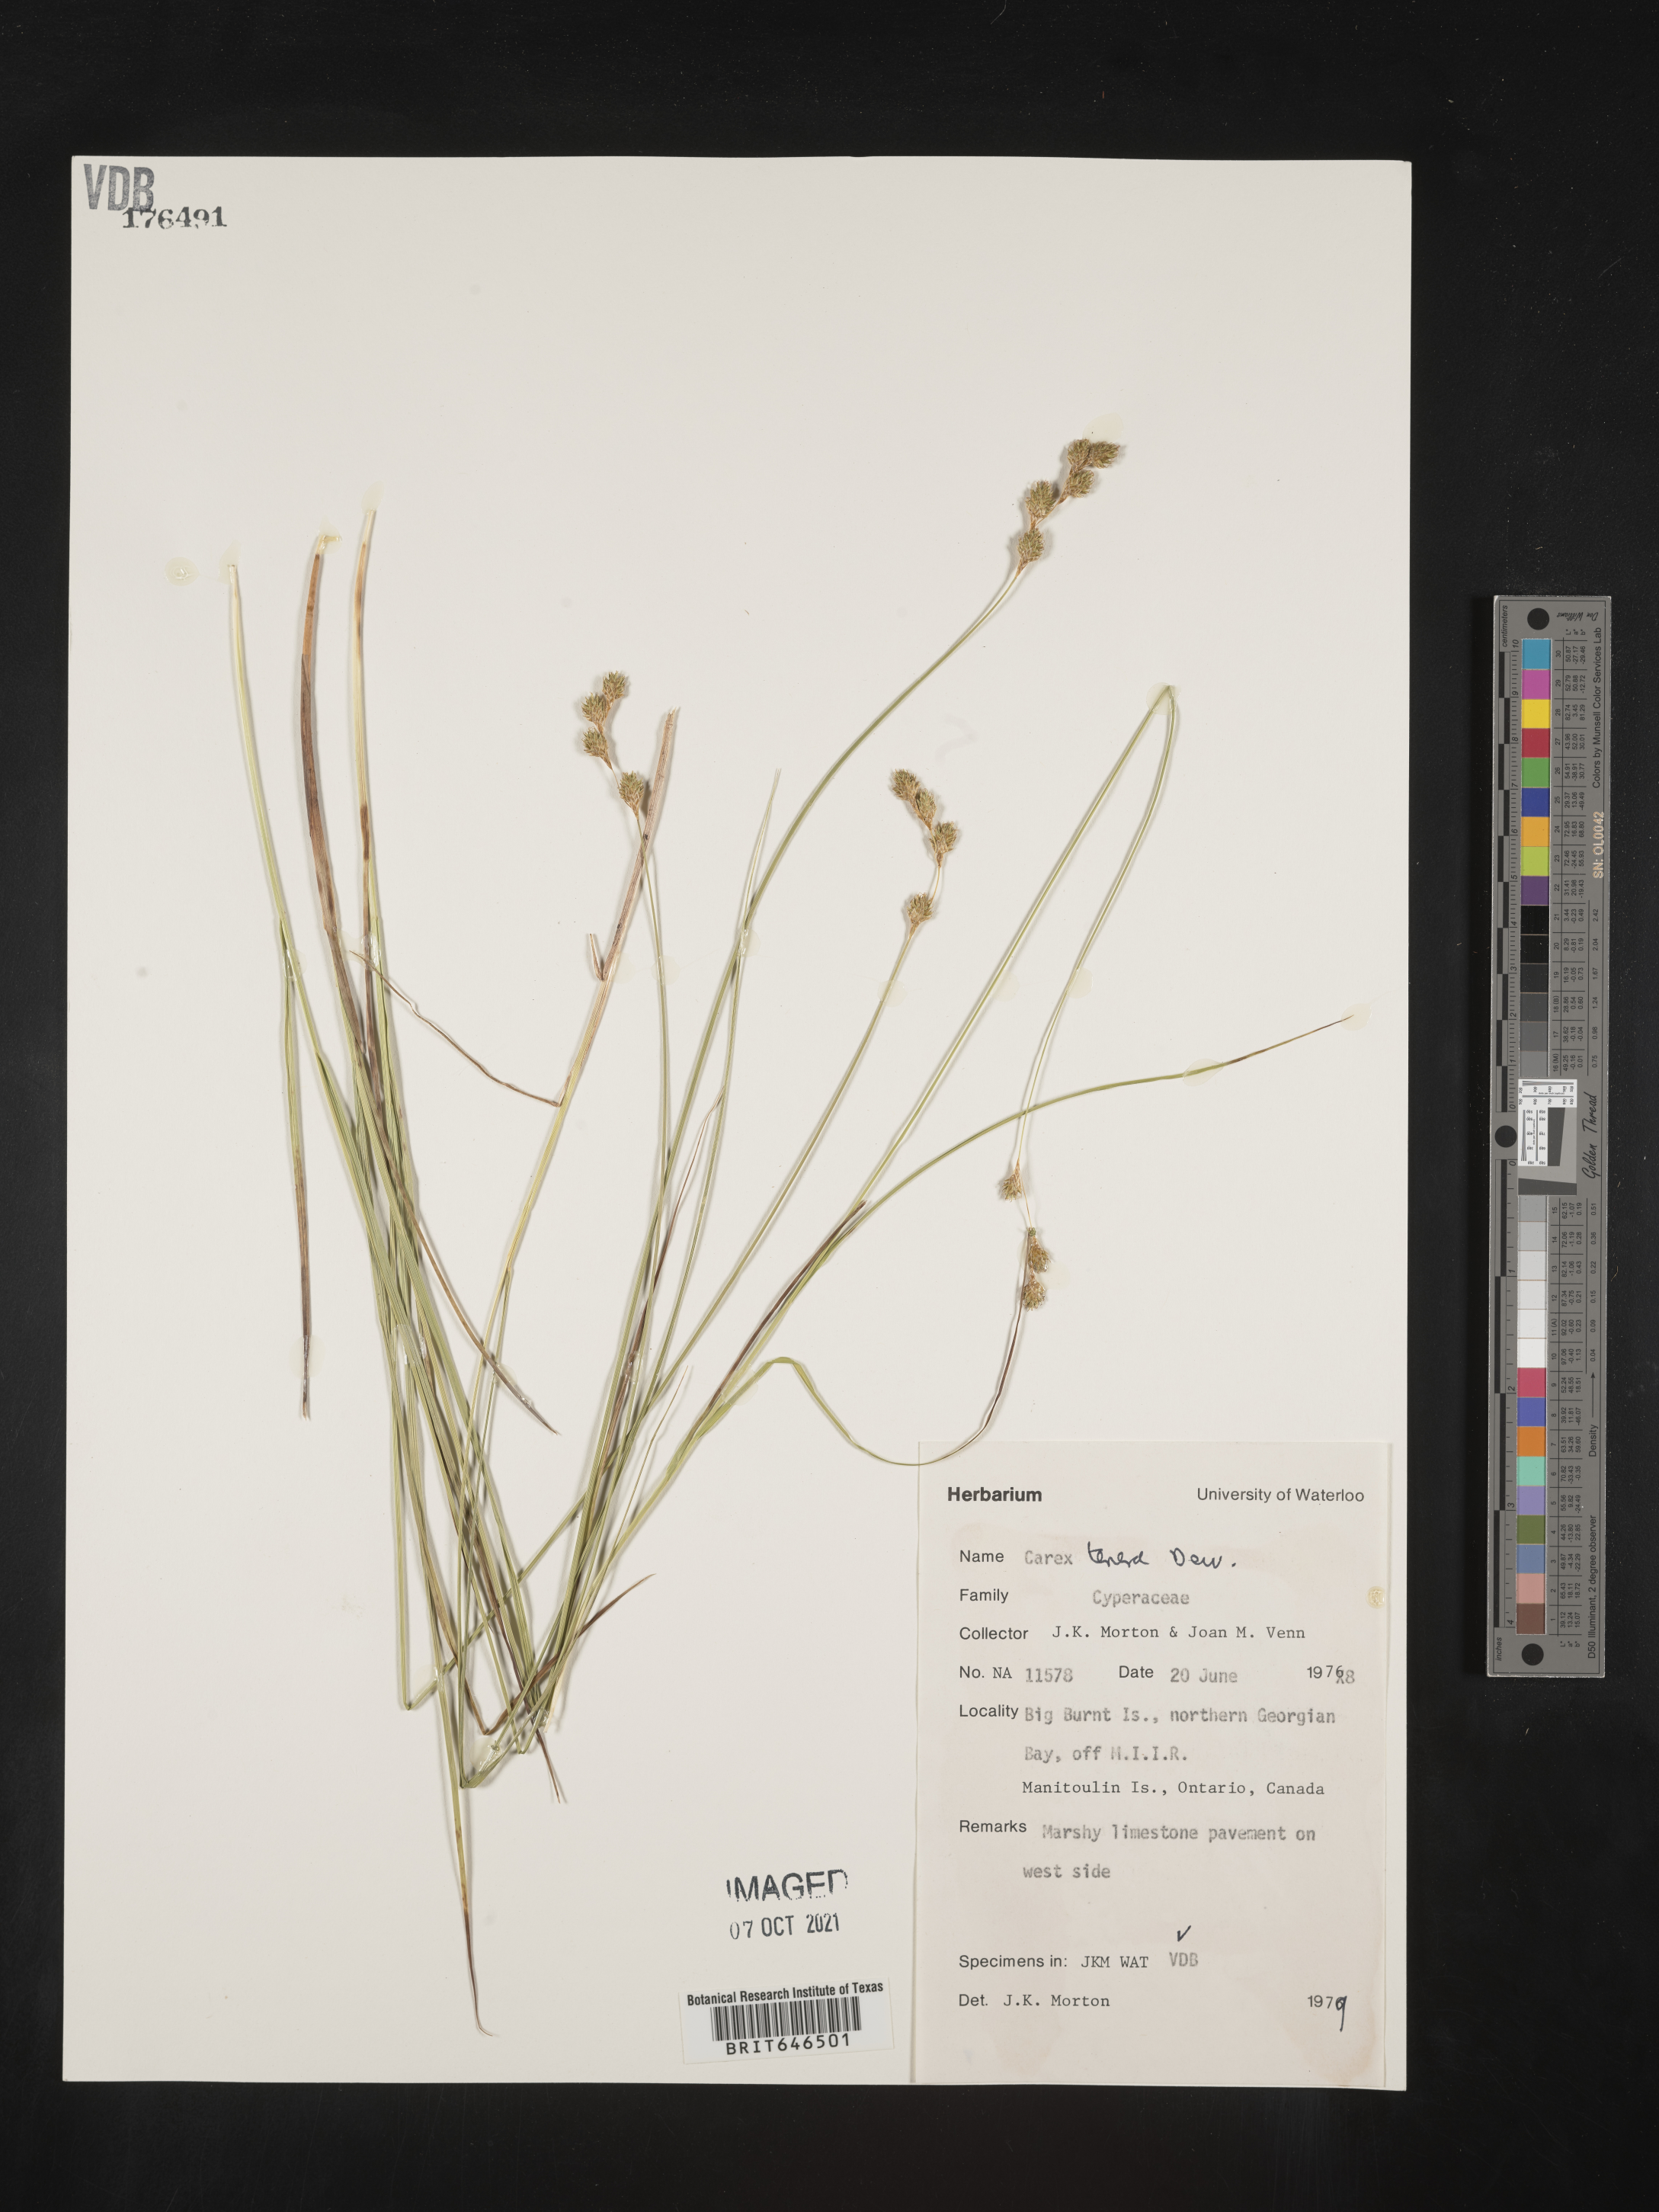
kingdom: Plantae
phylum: Tracheophyta
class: Liliopsida
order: Poales
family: Cyperaceae
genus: Carex
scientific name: Carex tenera
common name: Broad-fruited sedge
